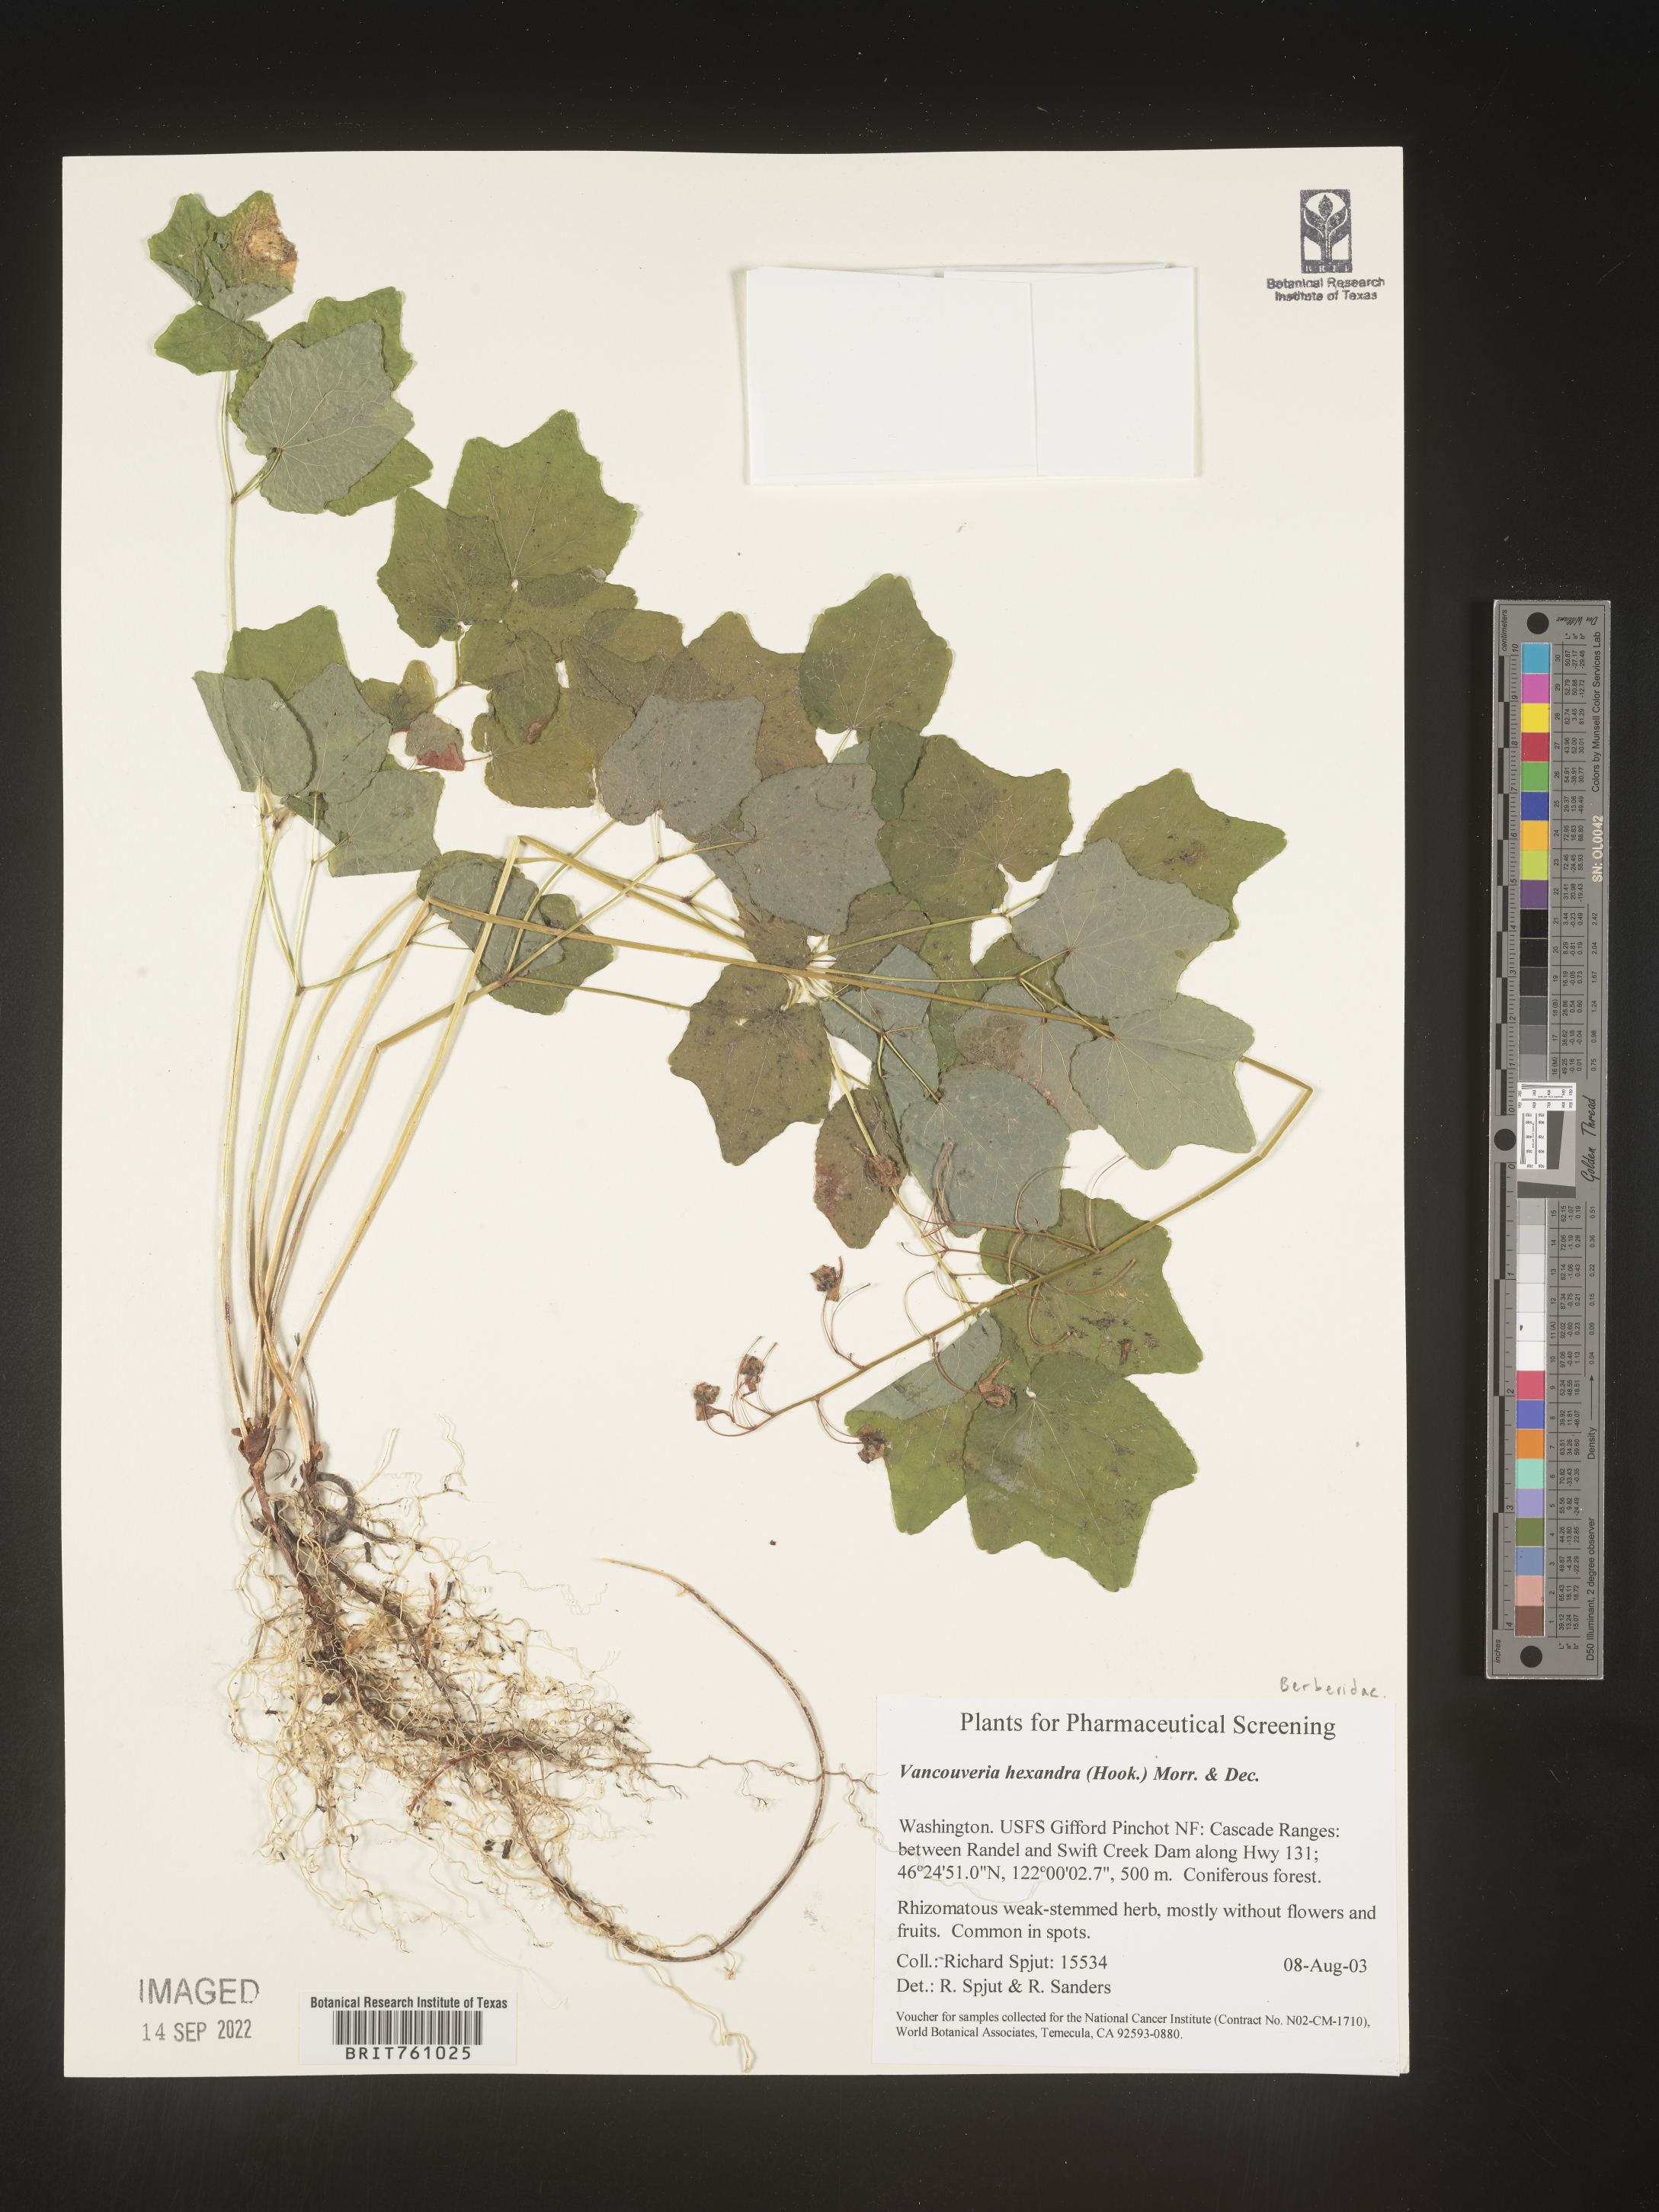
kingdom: Plantae
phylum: Tracheophyta
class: Magnoliopsida
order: Ranunculales
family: Berberidaceae
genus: Vancouveria
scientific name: Vancouveria
